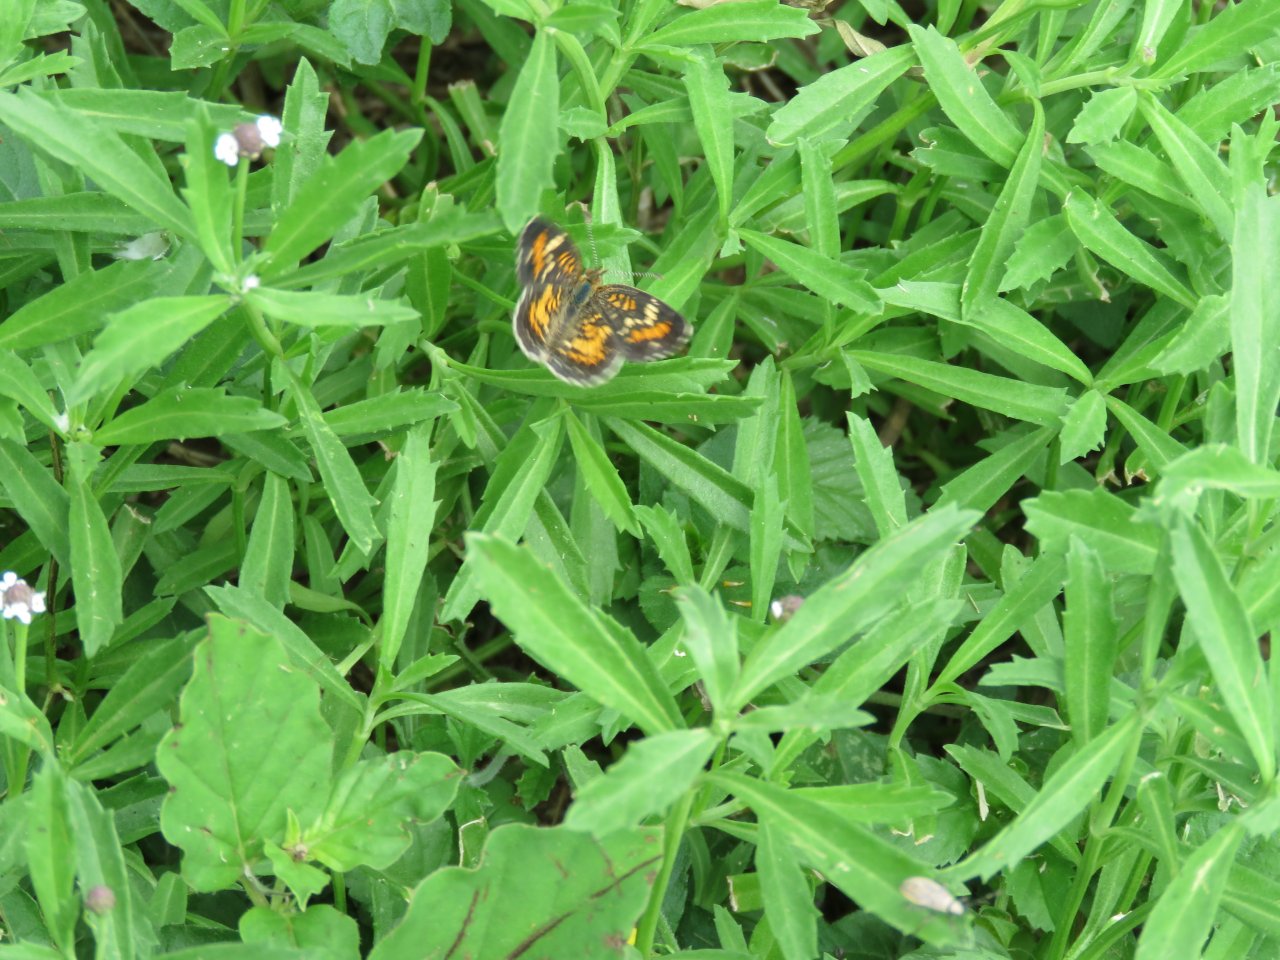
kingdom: Animalia
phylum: Arthropoda
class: Insecta
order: Lepidoptera
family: Nymphalidae
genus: Texola
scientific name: Texola elada
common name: Elada Checkerspot
